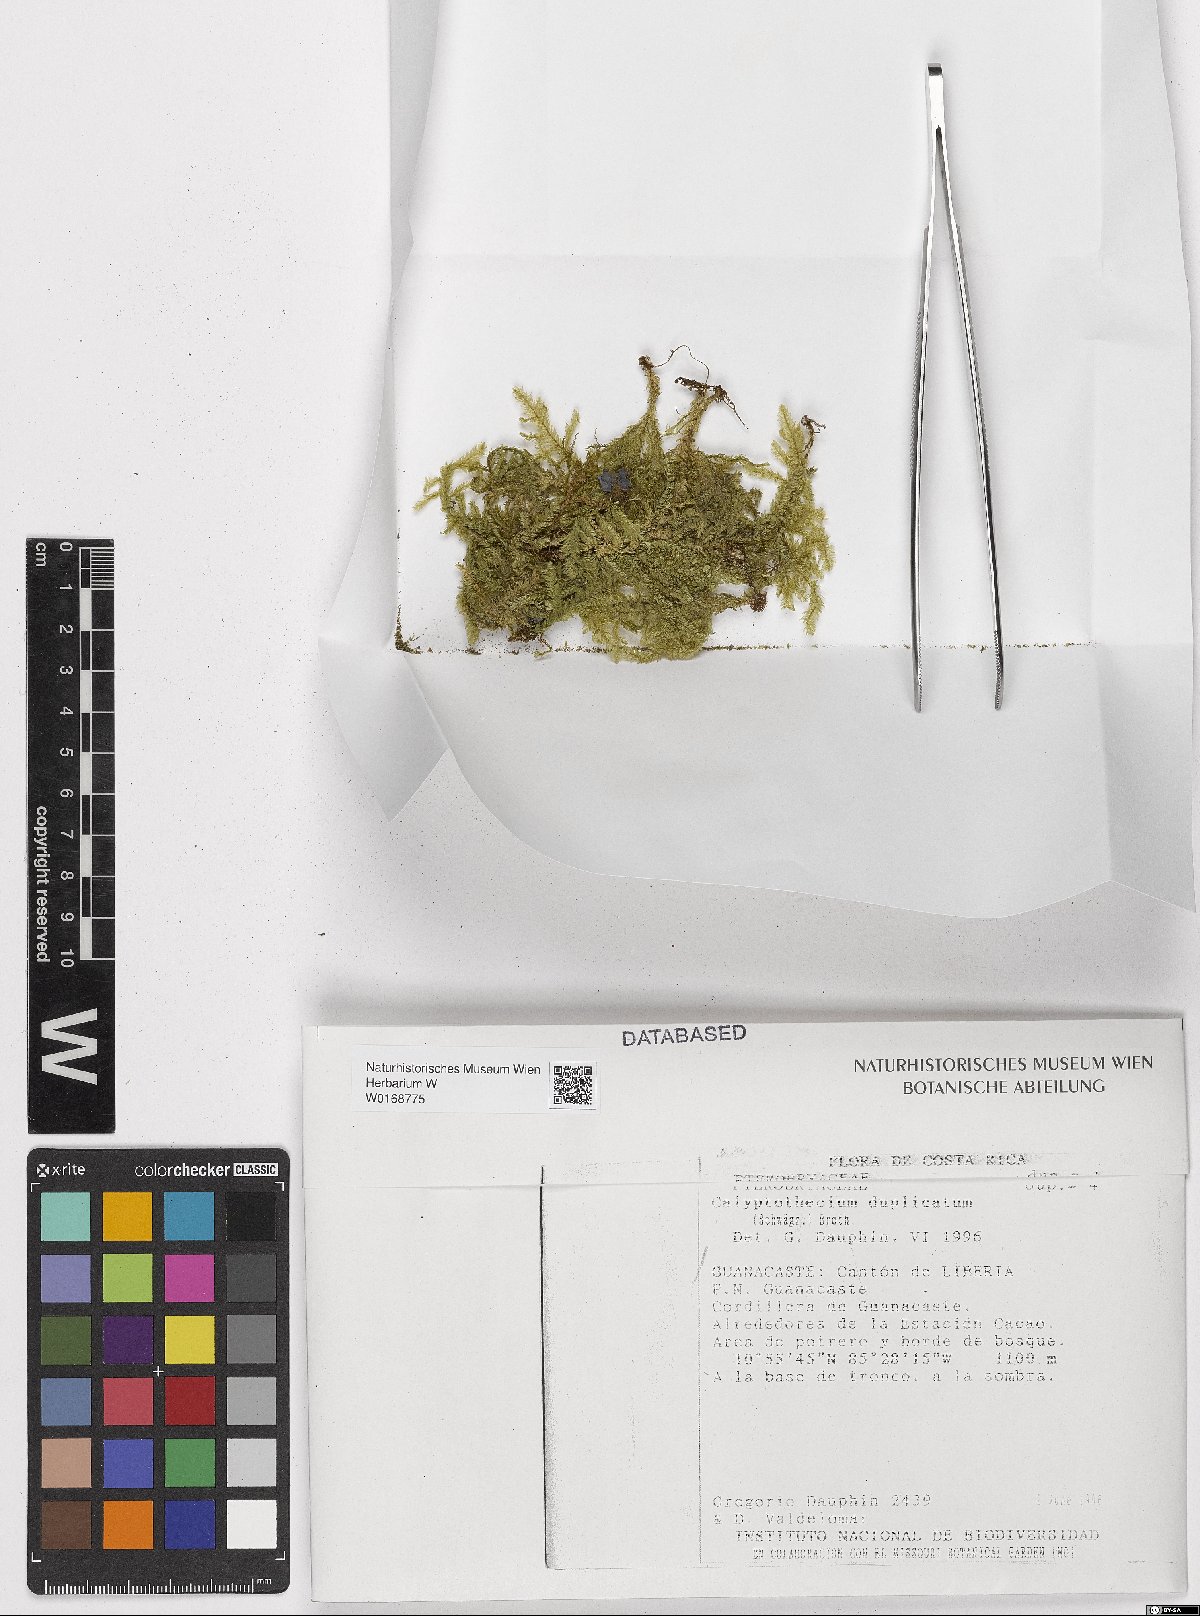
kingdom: Plantae
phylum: Bryophyta
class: Bryopsida
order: Hypnales
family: Pterobryaceae
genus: Calyptothecium
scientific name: Calyptothecium duplicatum
